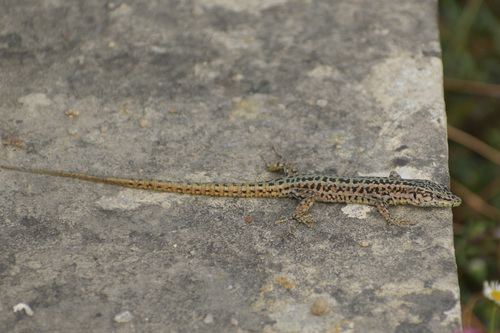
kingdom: Animalia
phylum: Chordata
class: Squamata
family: Lacertidae
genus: Podarcis
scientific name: Podarcis virescens
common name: Geniez’s wall lizard
